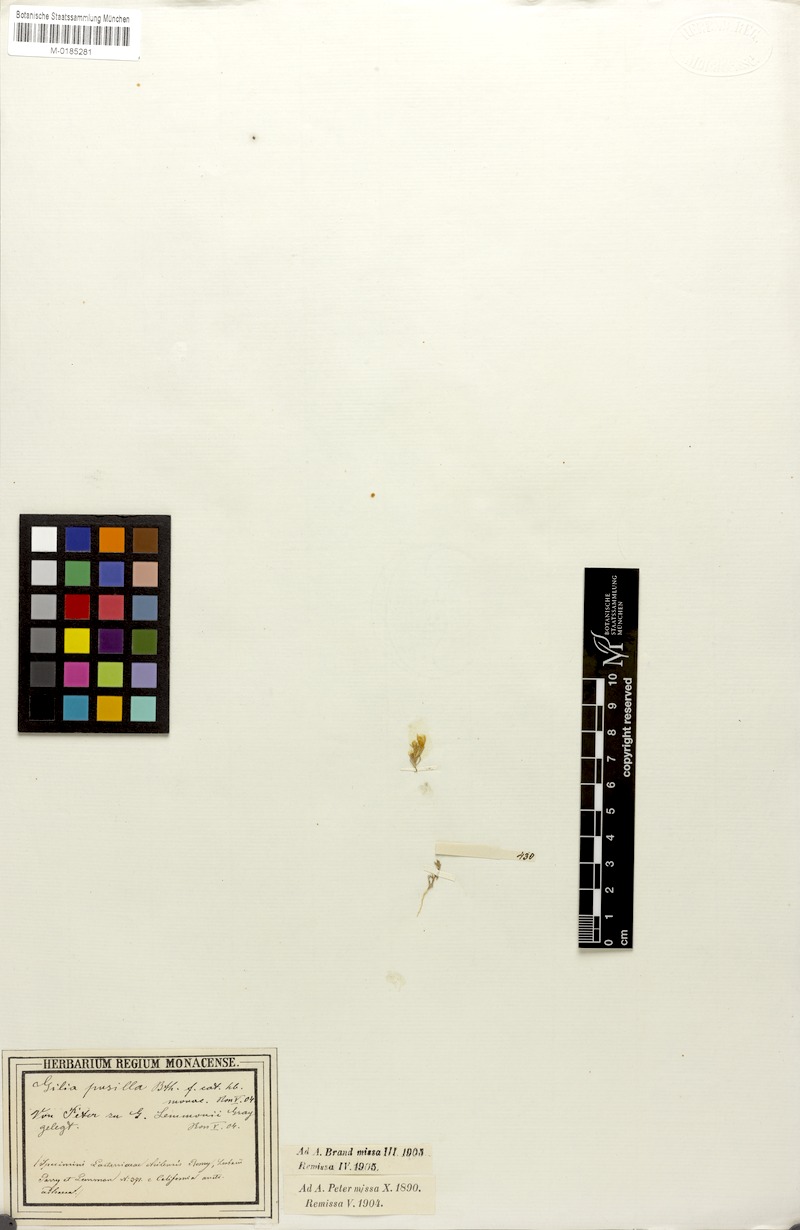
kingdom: Plantae
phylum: Tracheophyta
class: Magnoliopsida
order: Ericales
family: Polemoniaceae
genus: Leptosiphon
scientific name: Leptosiphon lemmonii
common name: Lemmon's linanthus
